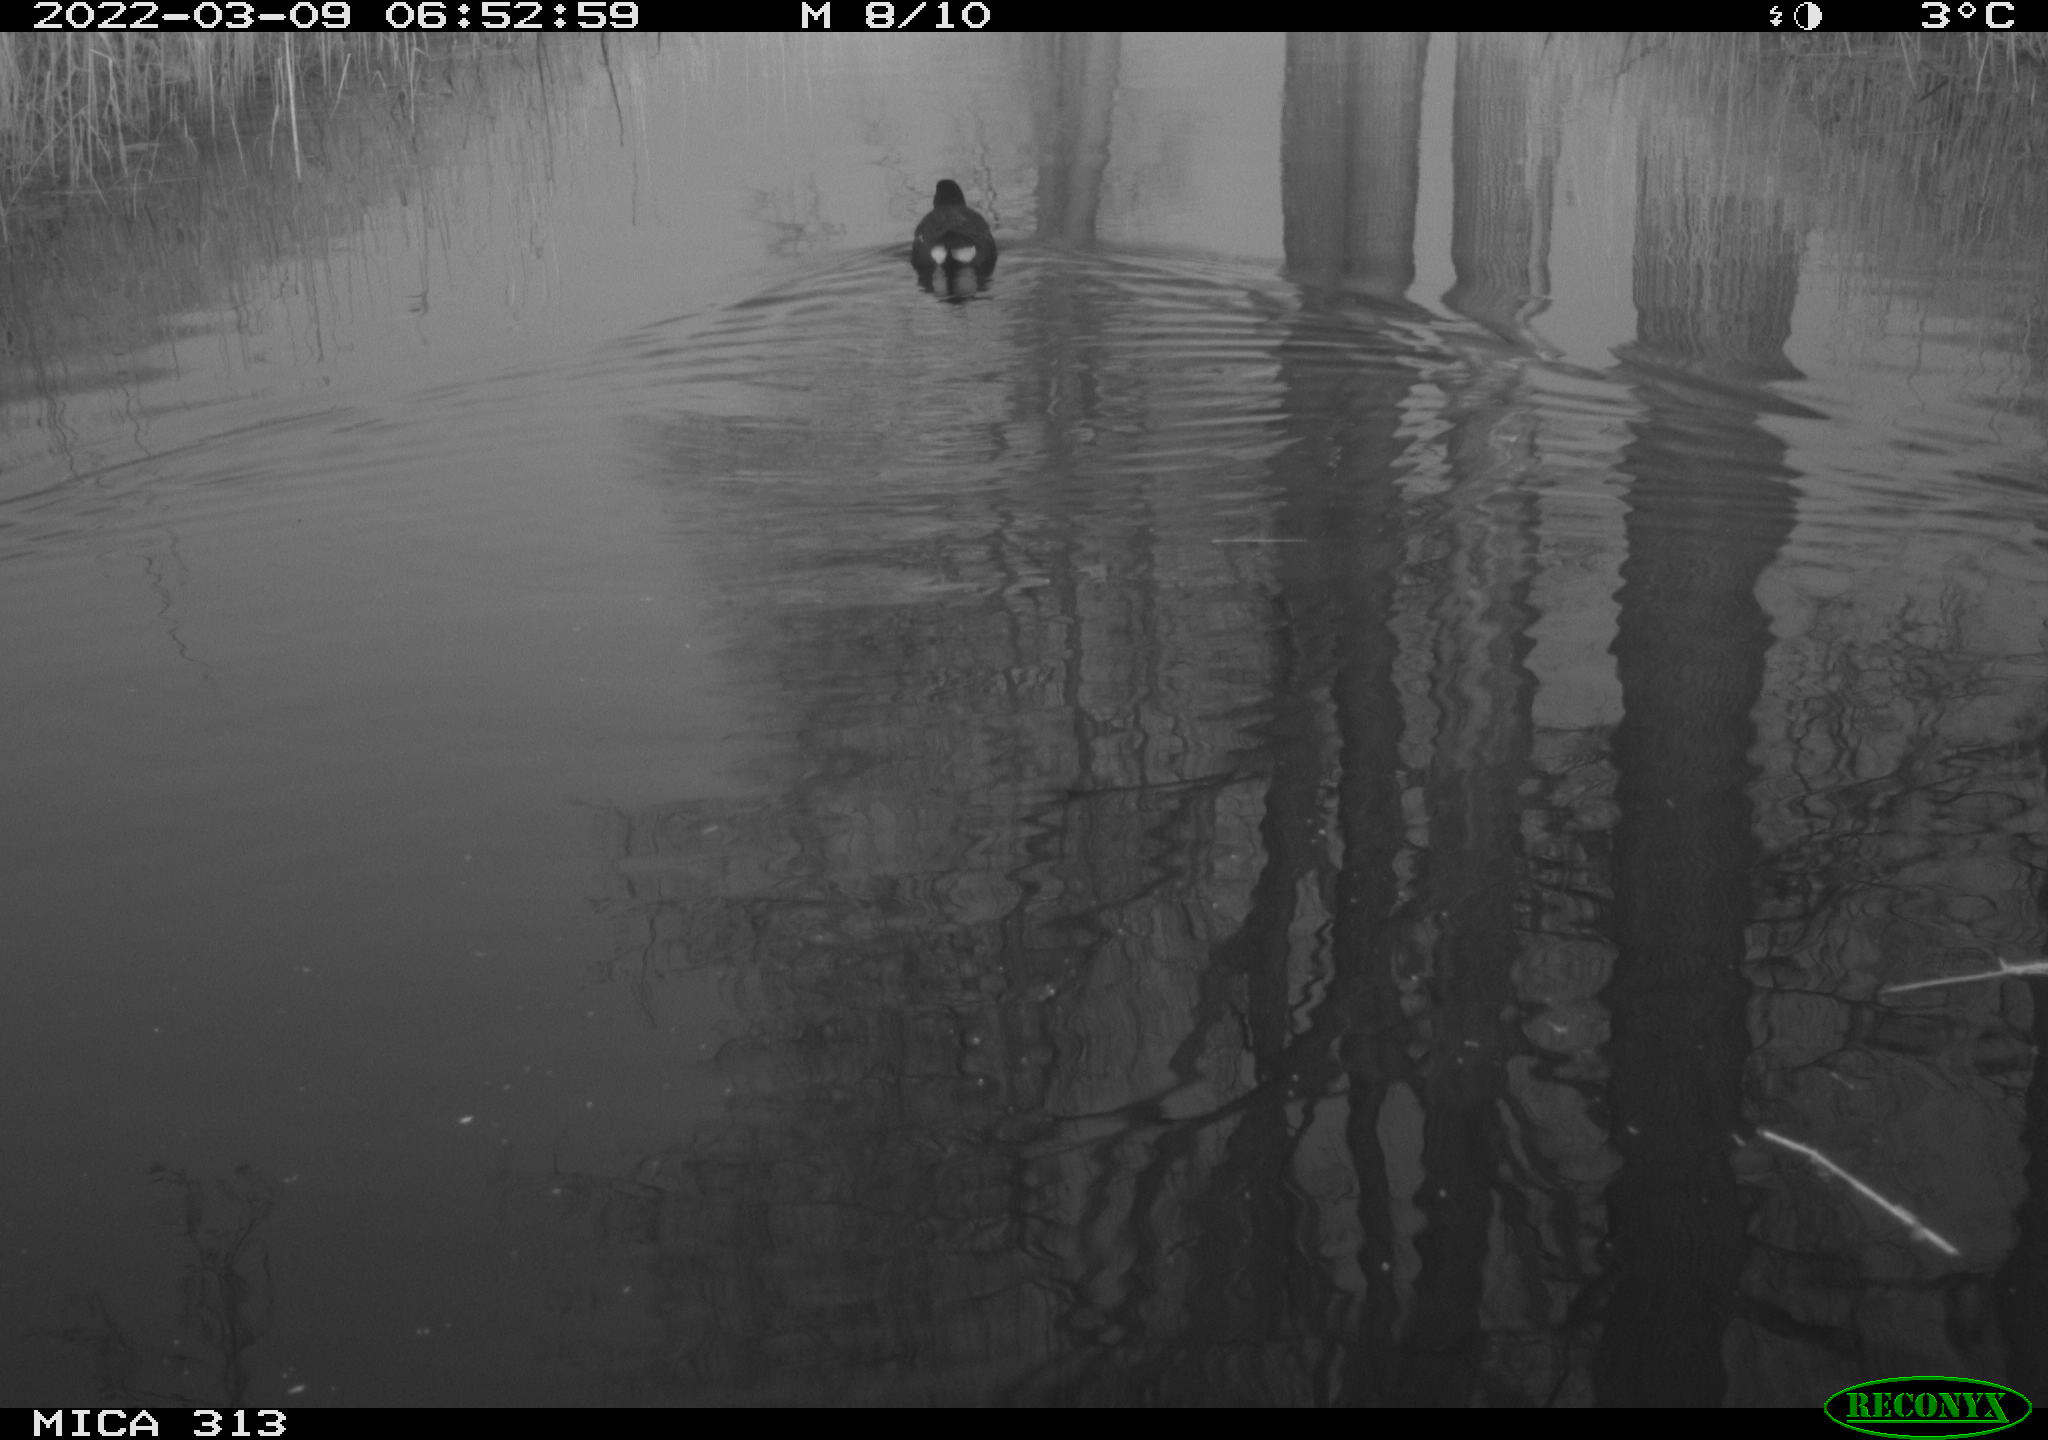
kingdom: Animalia
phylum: Chordata
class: Aves
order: Gruiformes
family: Rallidae
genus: Gallinula
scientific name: Gallinula chloropus
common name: Common moorhen
